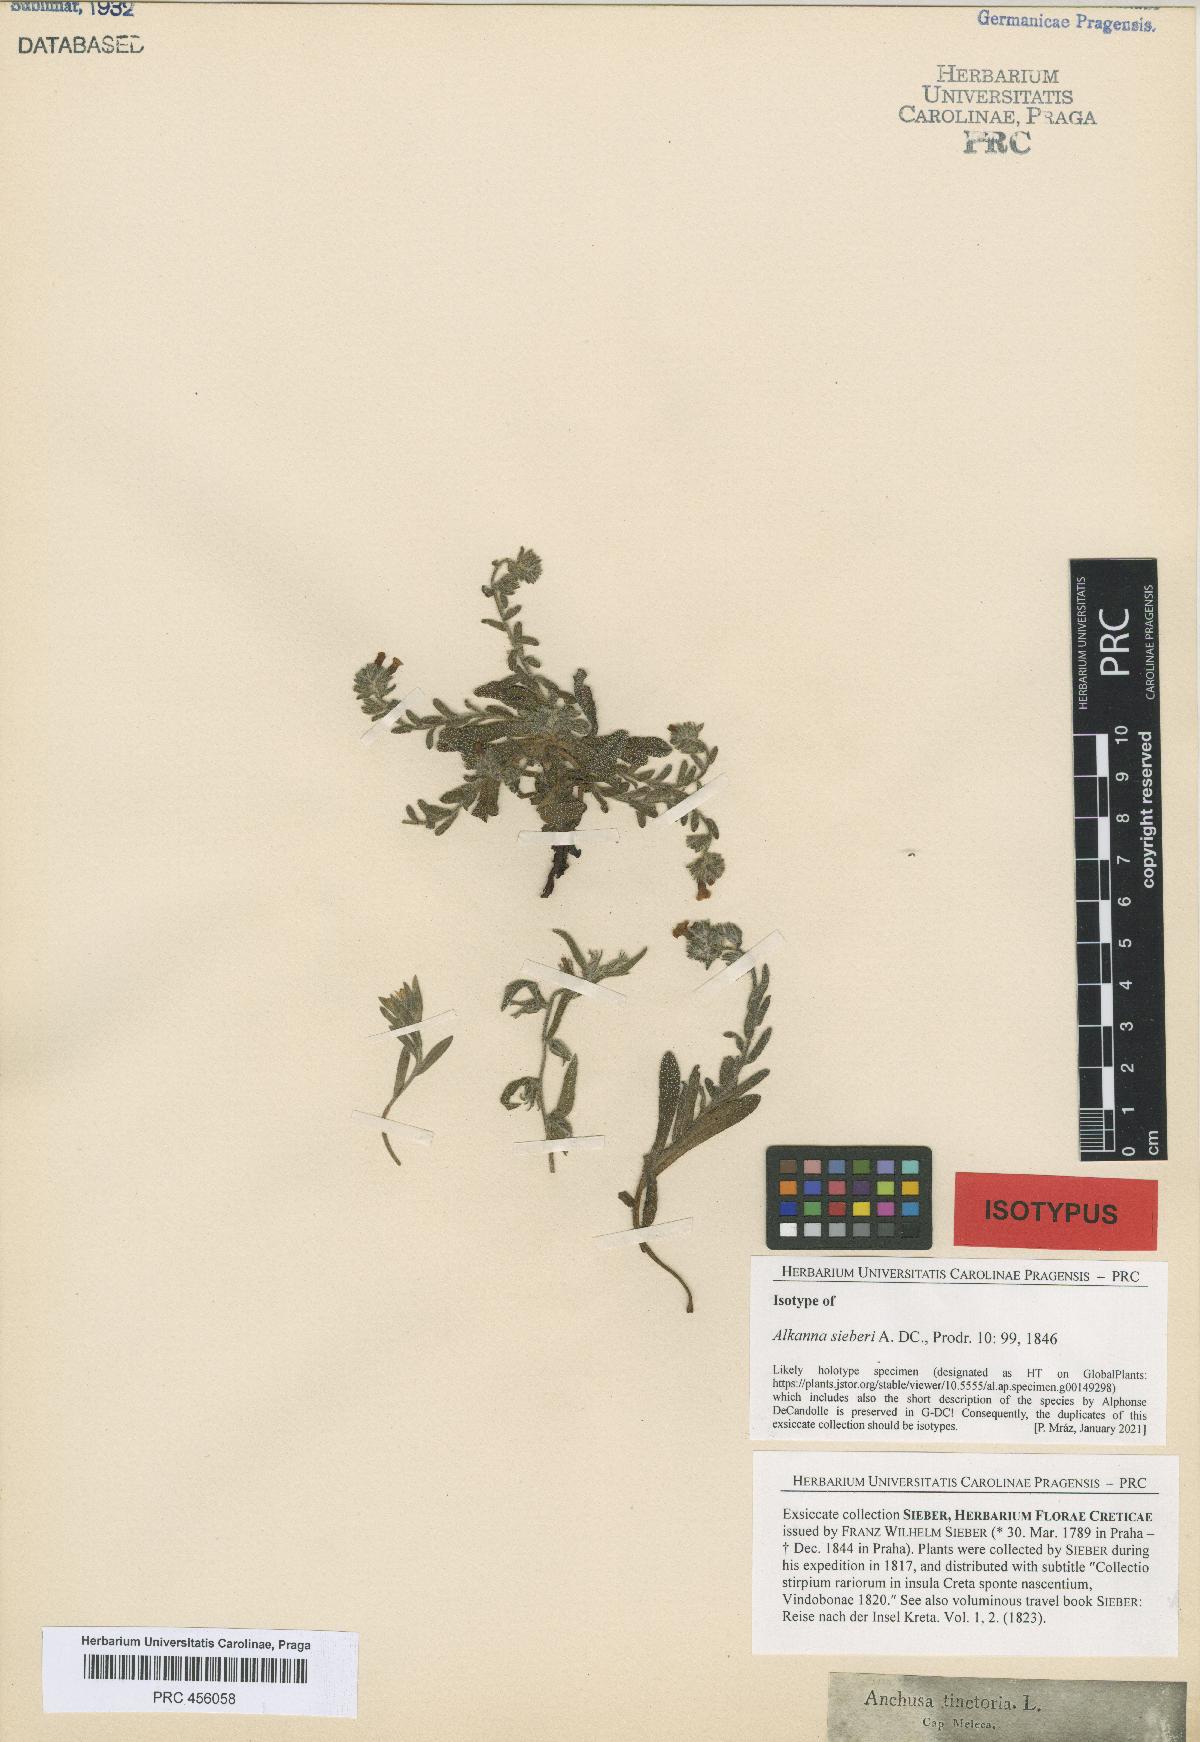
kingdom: Plantae
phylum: Tracheophyta
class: Magnoliopsida
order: Boraginales
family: Boraginaceae
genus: Alkanna
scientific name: Alkanna sieberi
